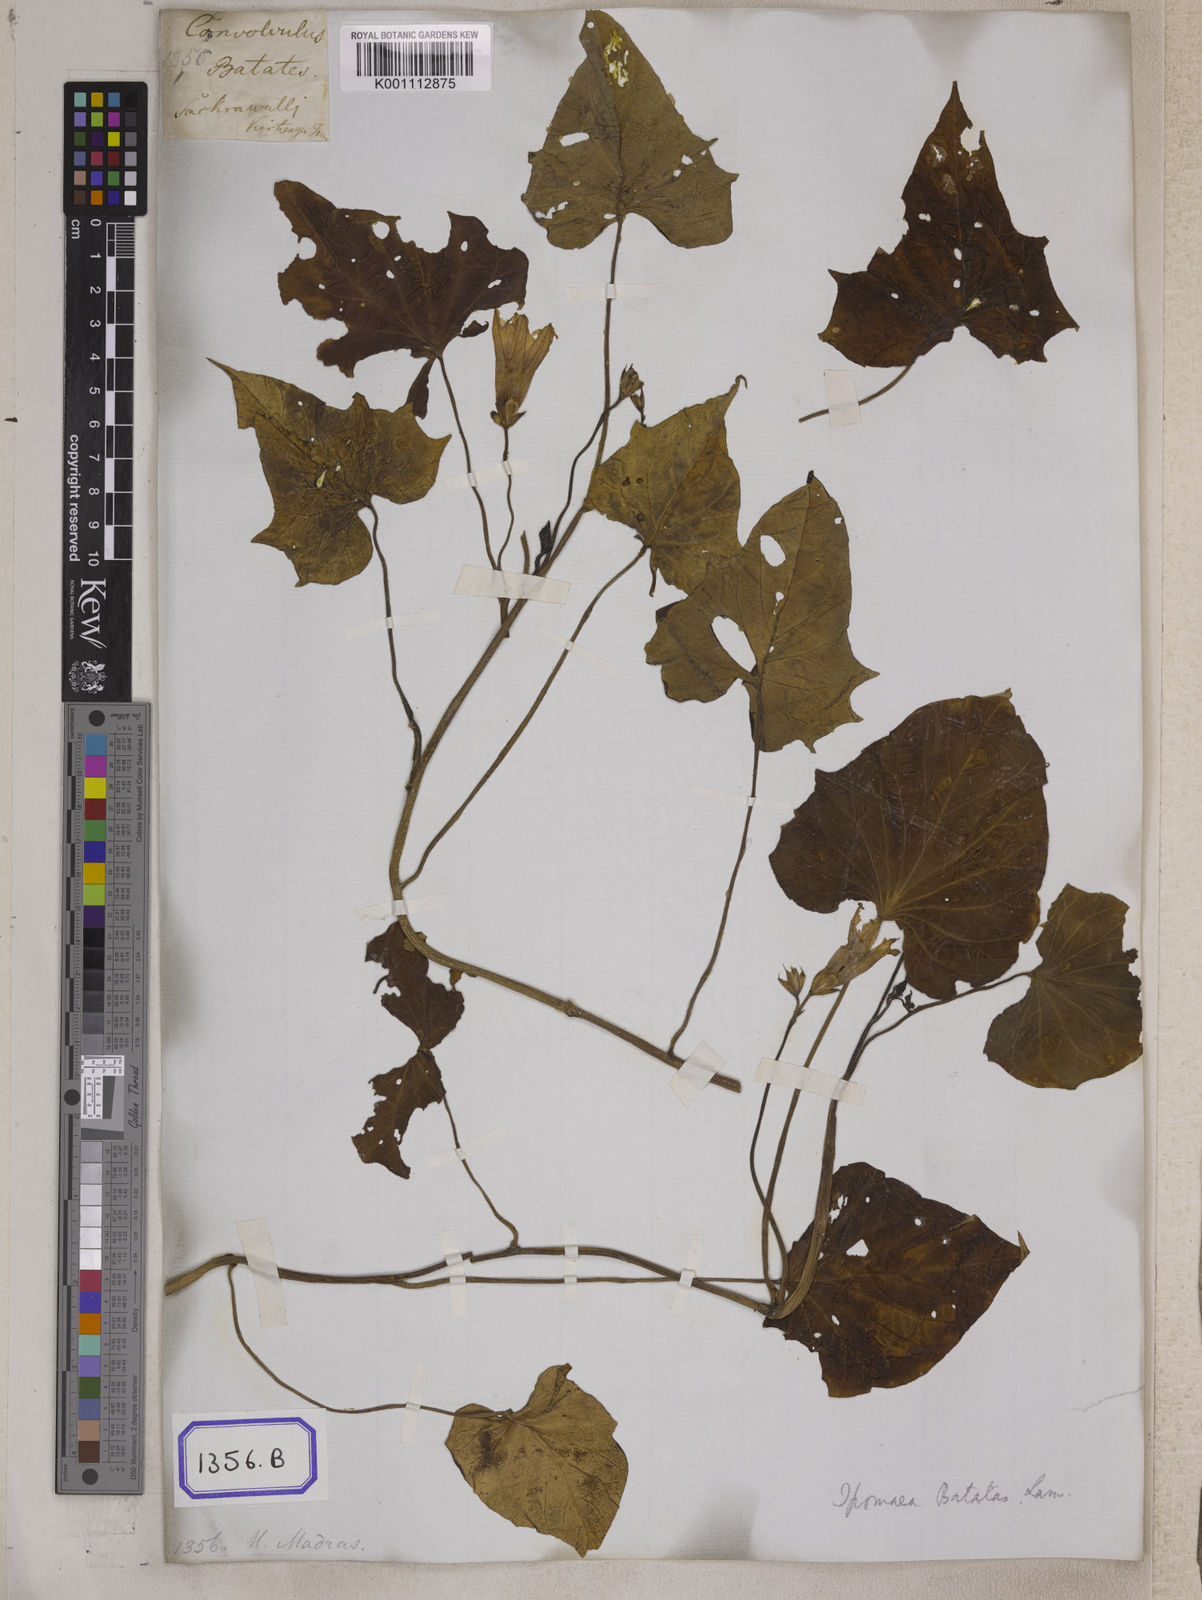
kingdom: Plantae
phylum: Tracheophyta
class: Magnoliopsida
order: Solanales
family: Convolvulaceae
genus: Ipomoea
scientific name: Ipomoea batatas
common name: Sweet-potato
